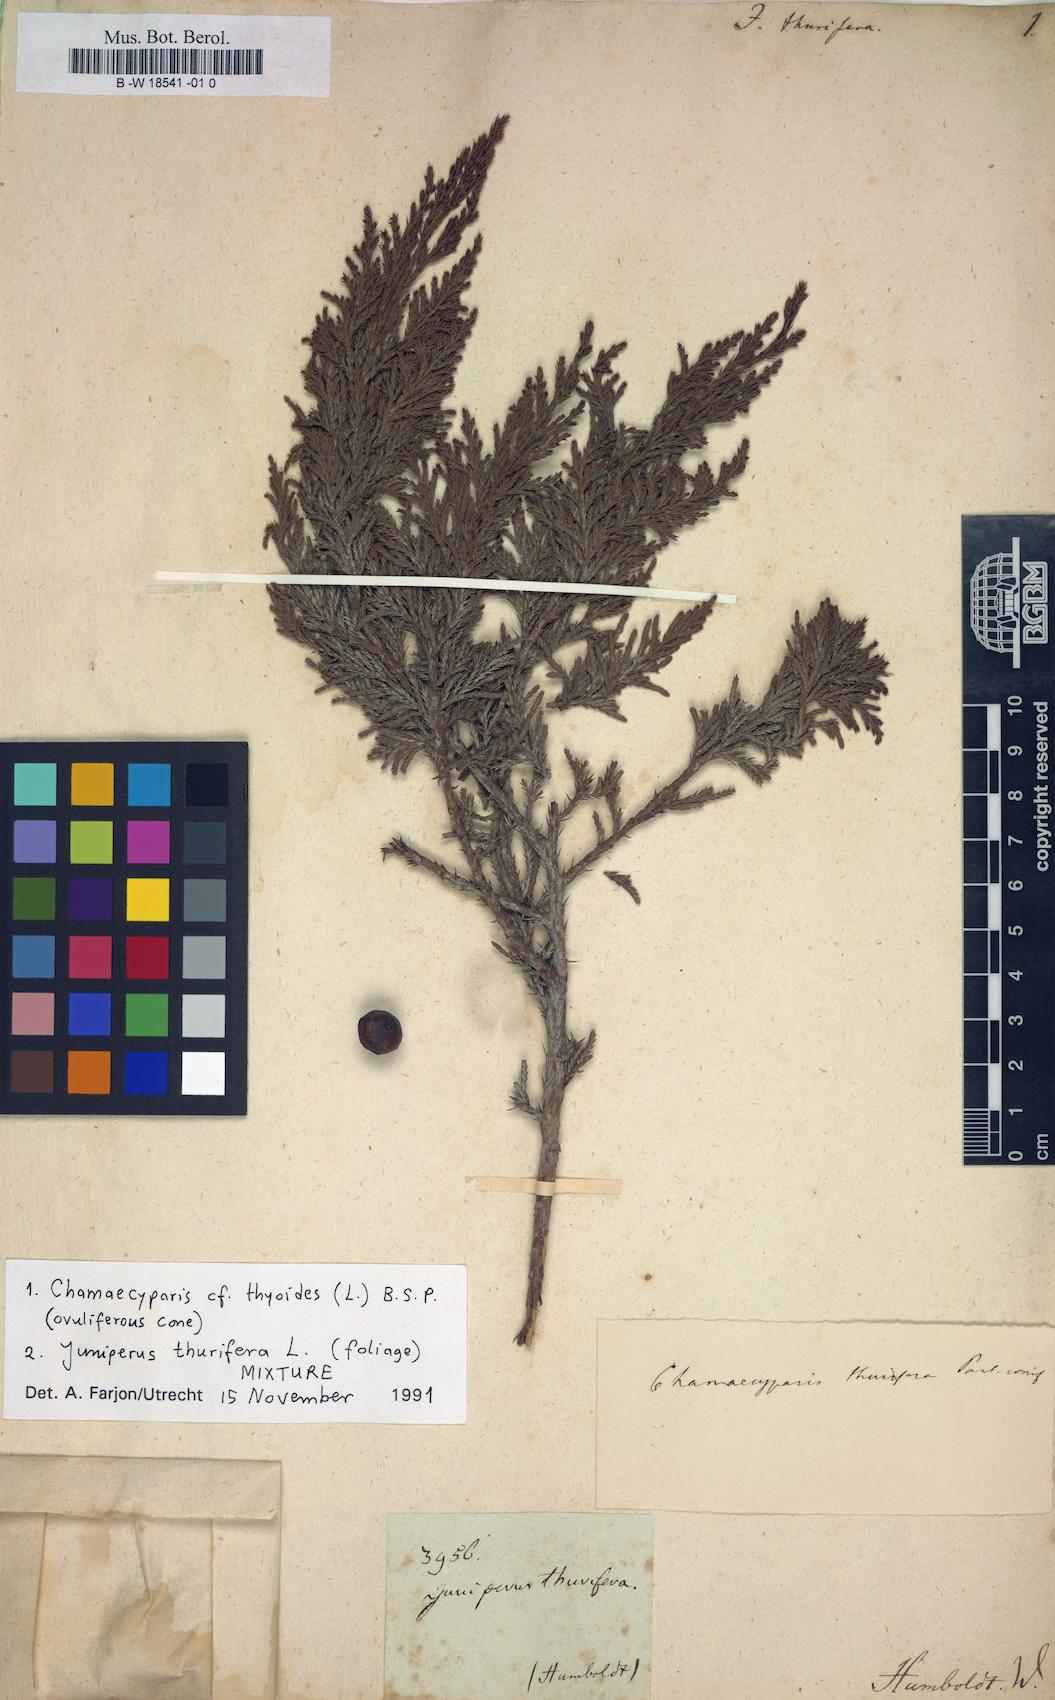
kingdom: Plantae
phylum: Tracheophyta
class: Pinopsida
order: Pinales
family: Cupressaceae
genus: Juniperus
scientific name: Juniperus thurifera
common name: Incense juniper
